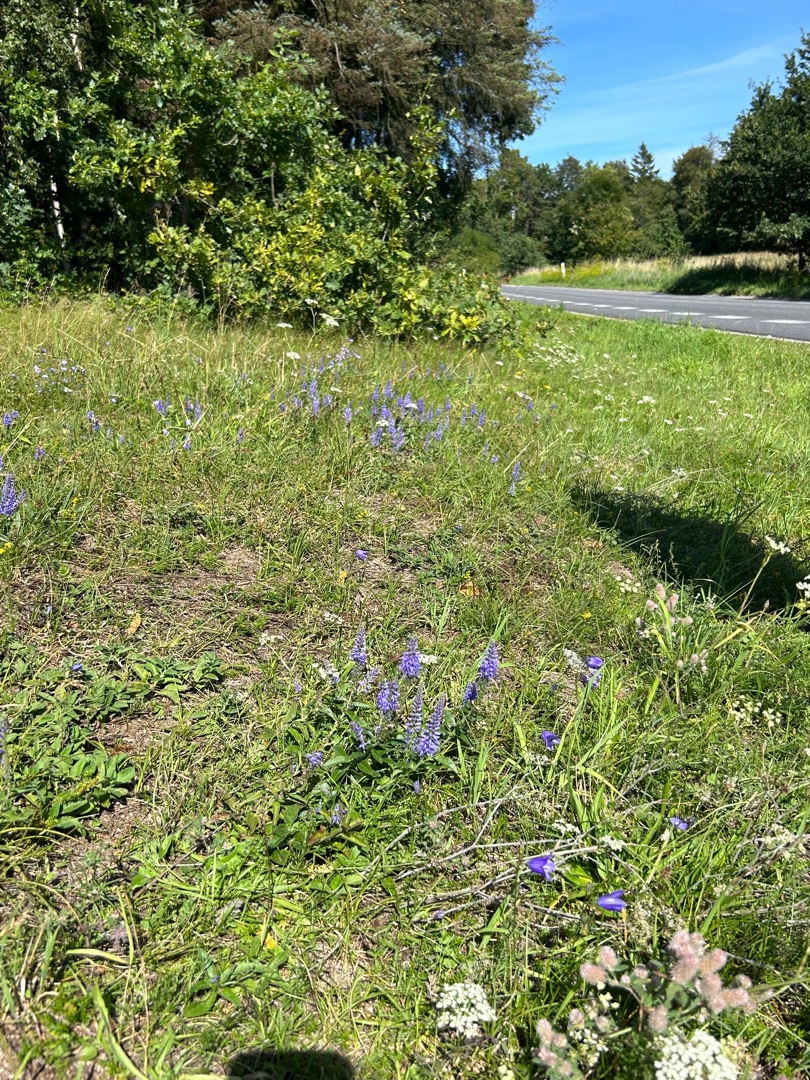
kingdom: Plantae
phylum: Tracheophyta
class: Magnoliopsida
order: Lamiales
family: Plantaginaceae
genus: Veronica
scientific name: Veronica
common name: Ærenprisslægten
